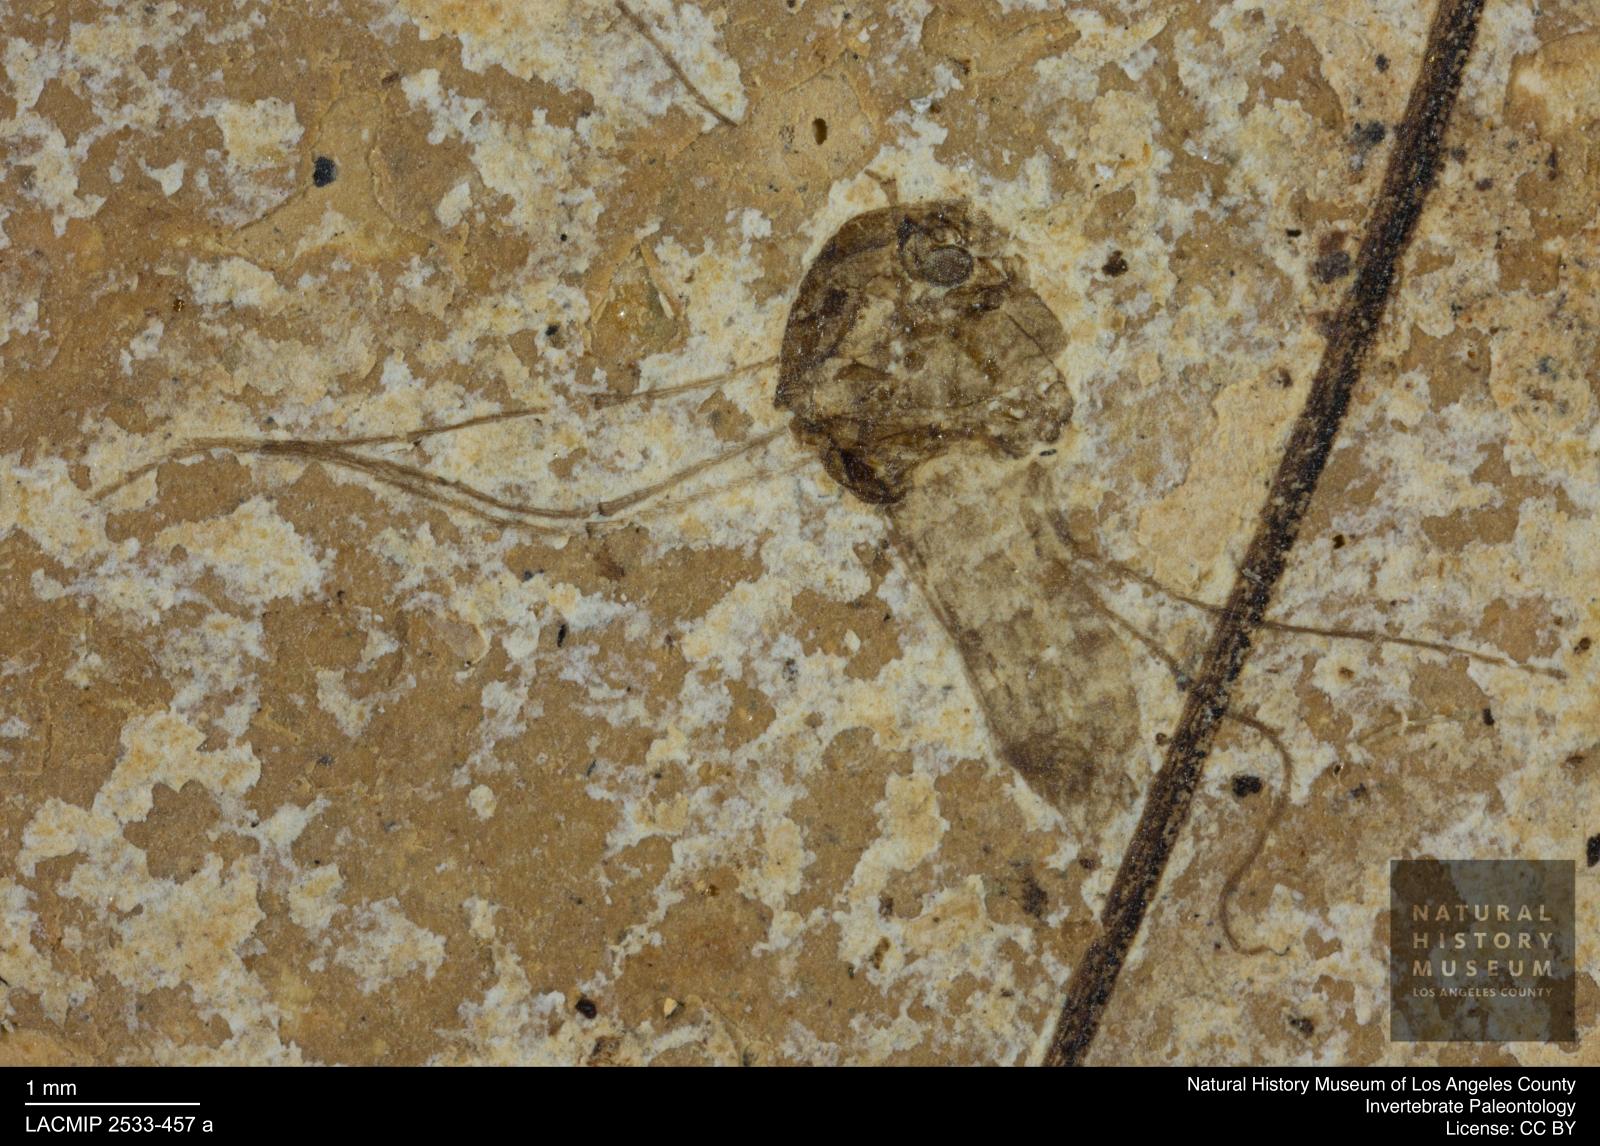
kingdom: Animalia
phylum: Arthropoda
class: Insecta
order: Diptera
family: Chironomidae
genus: Tanypus
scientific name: Tanypus thienemanni
